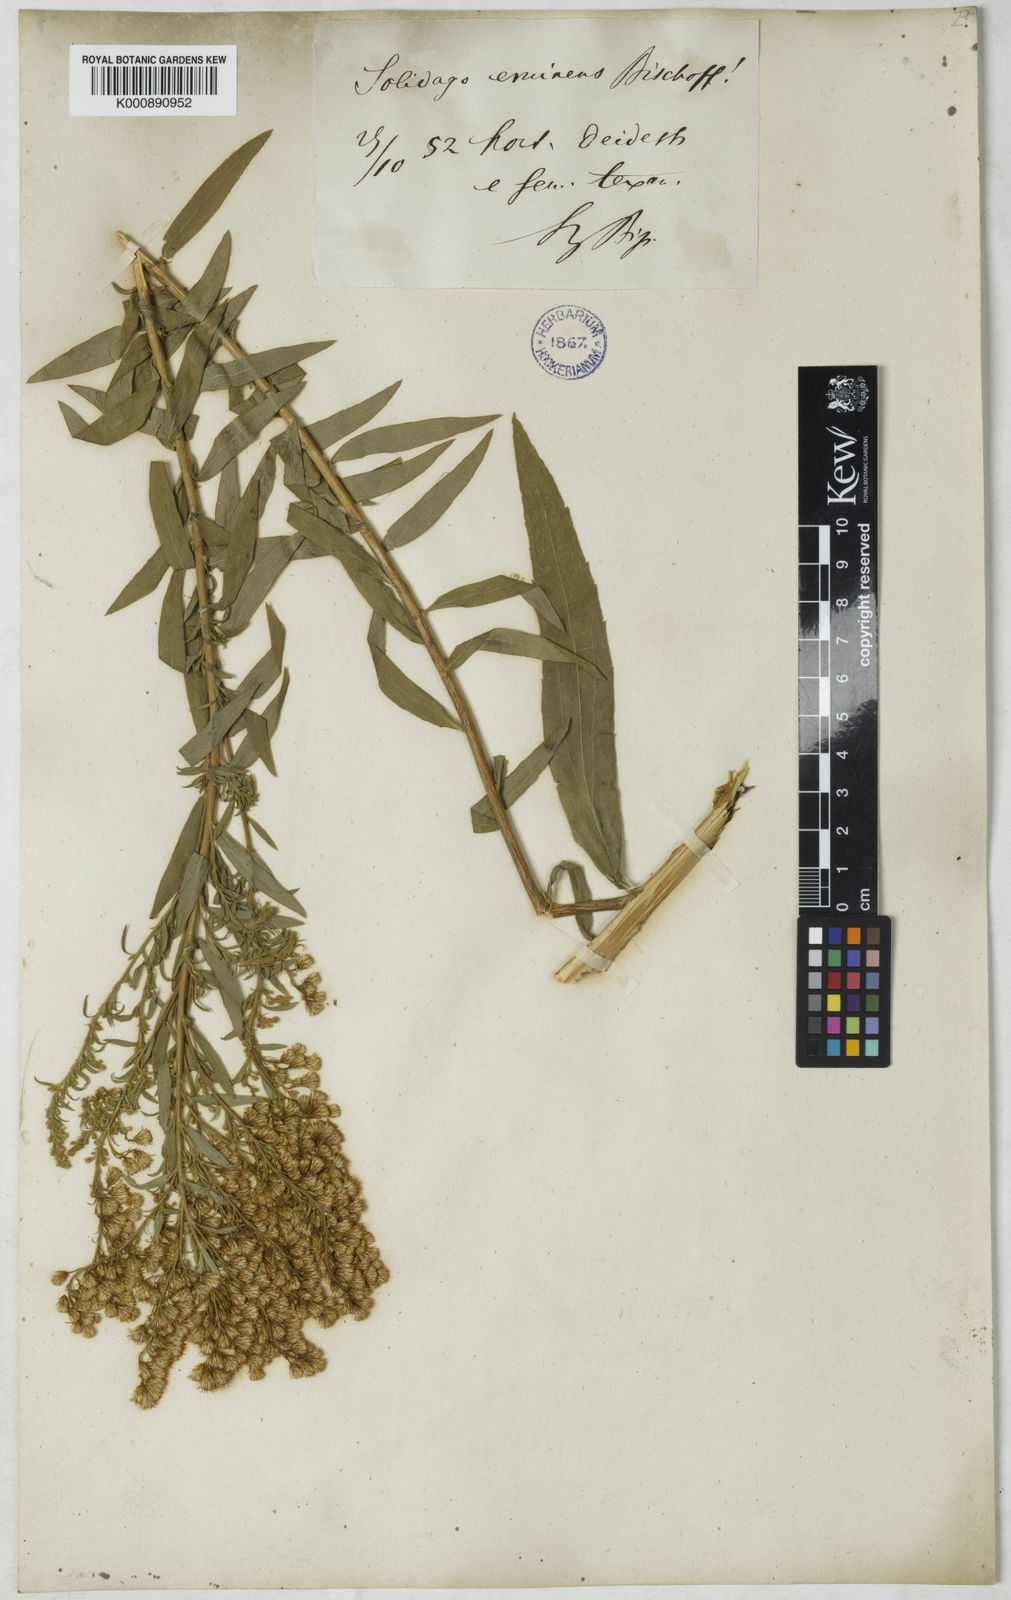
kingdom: Plantae
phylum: Tracheophyta
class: Magnoliopsida
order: Asterales
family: Asteraceae
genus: Solidago
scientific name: Solidago lepida
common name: Western canada goldenrod
